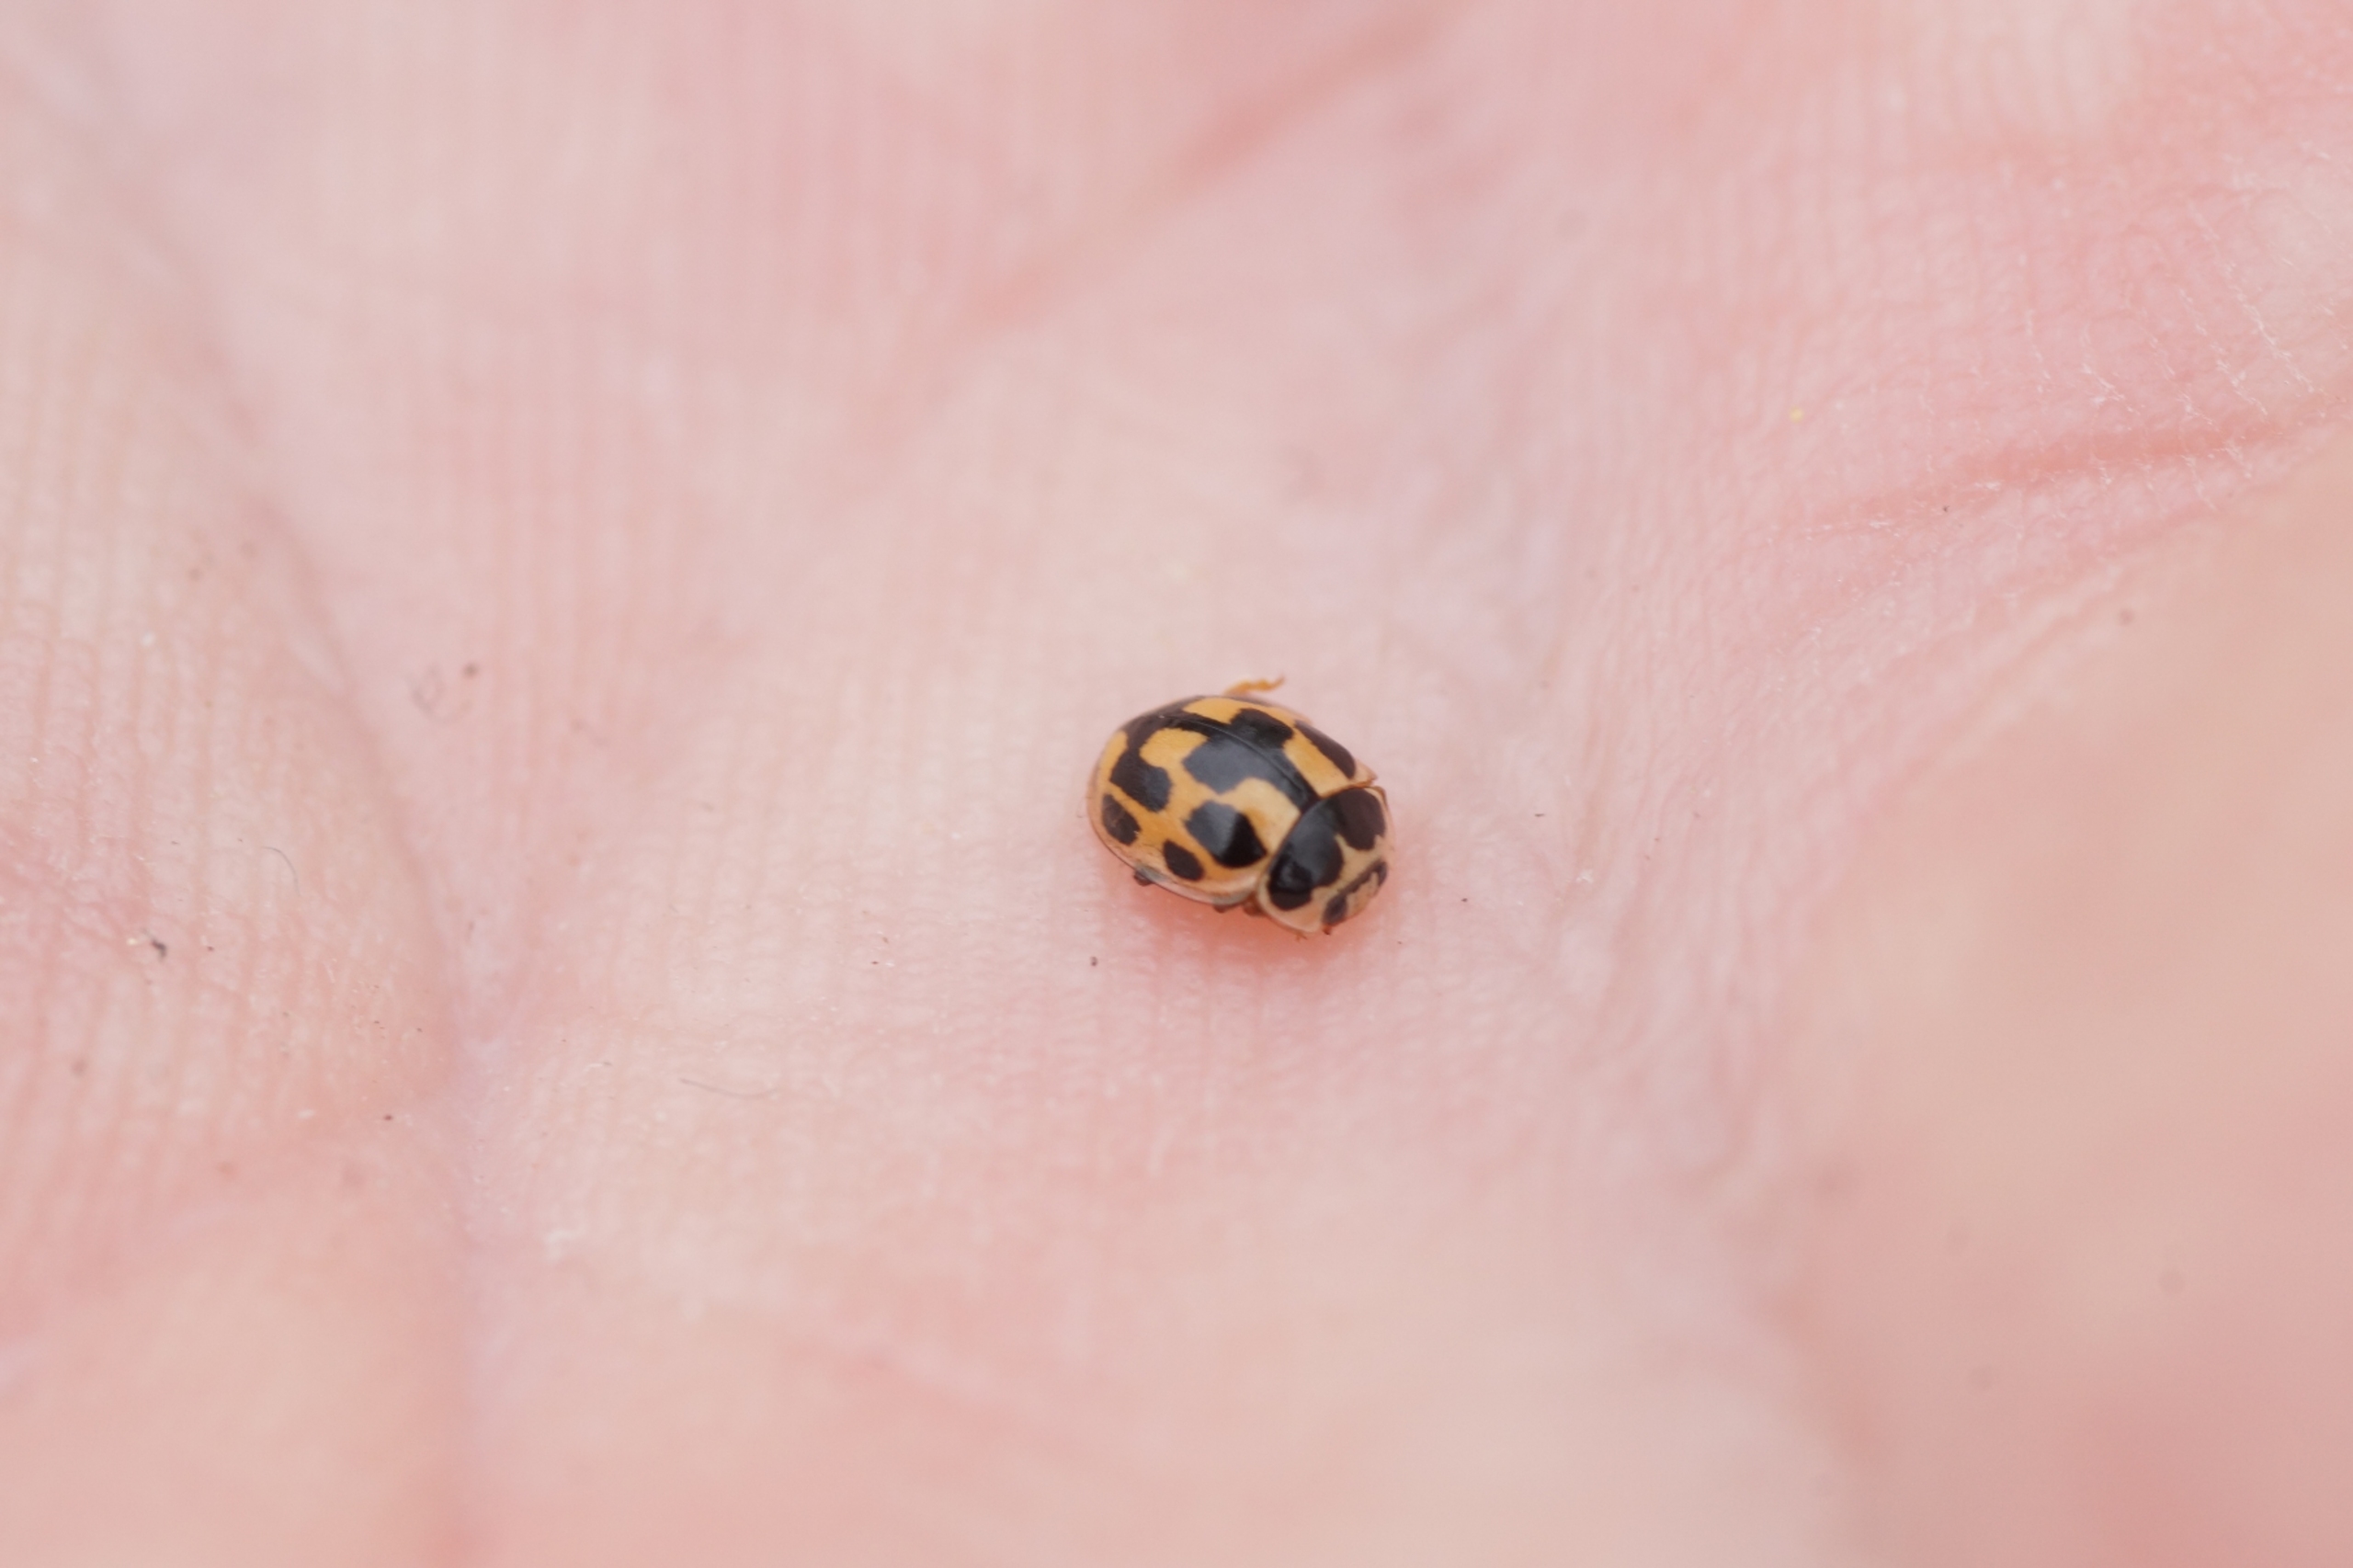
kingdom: Animalia
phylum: Arthropoda
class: Insecta
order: Coleoptera
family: Coccinellidae
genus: Propylaea
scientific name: Propylaea quatuordecimpunctata
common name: Skakbræt
